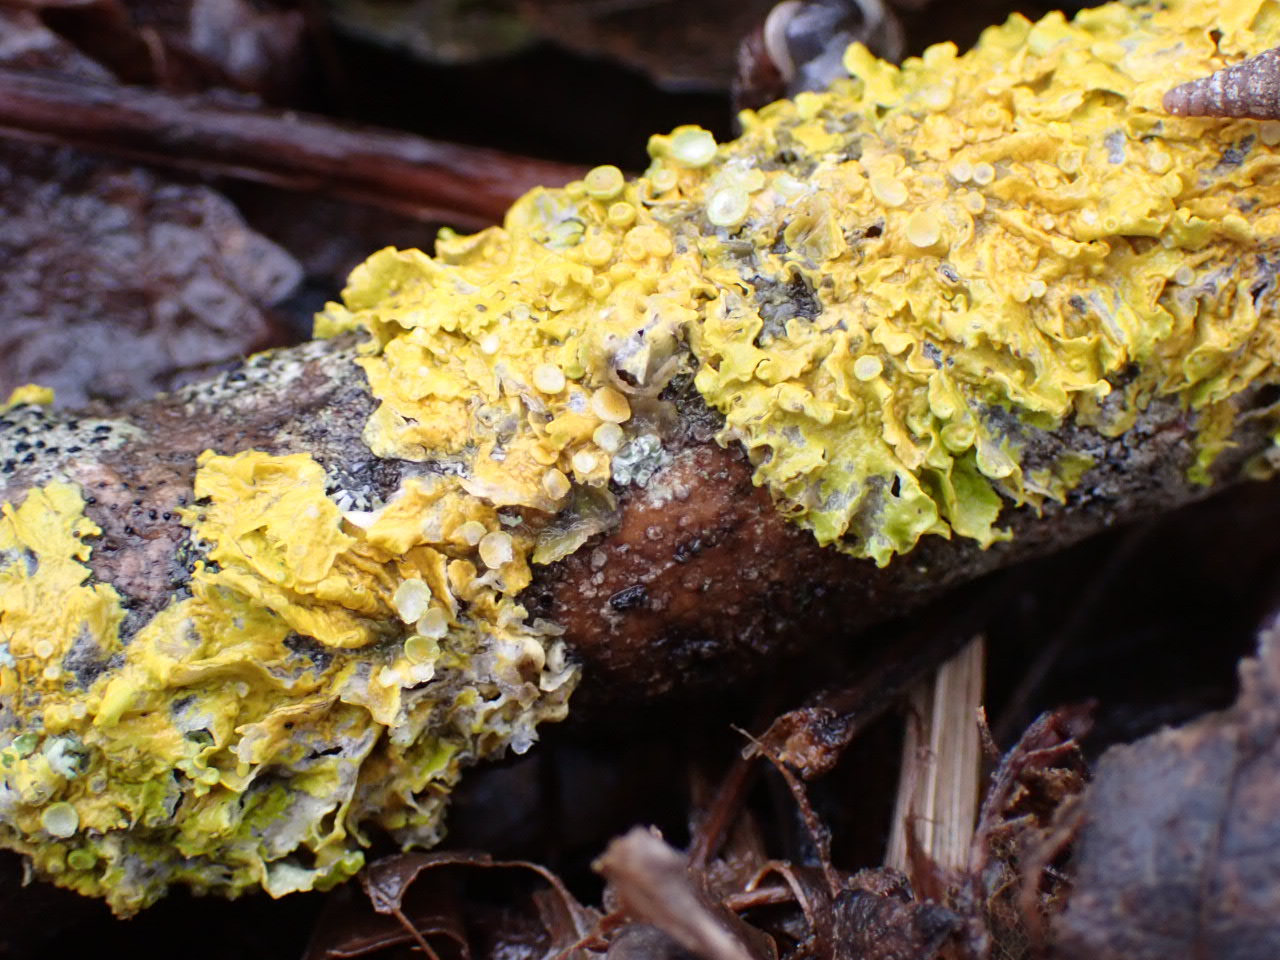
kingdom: Fungi
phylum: Ascomycota
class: Lecanoromycetes
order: Teloschistales
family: Teloschistaceae
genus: Xanthoria
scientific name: Xanthoria parietina
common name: almindelig væggelav
